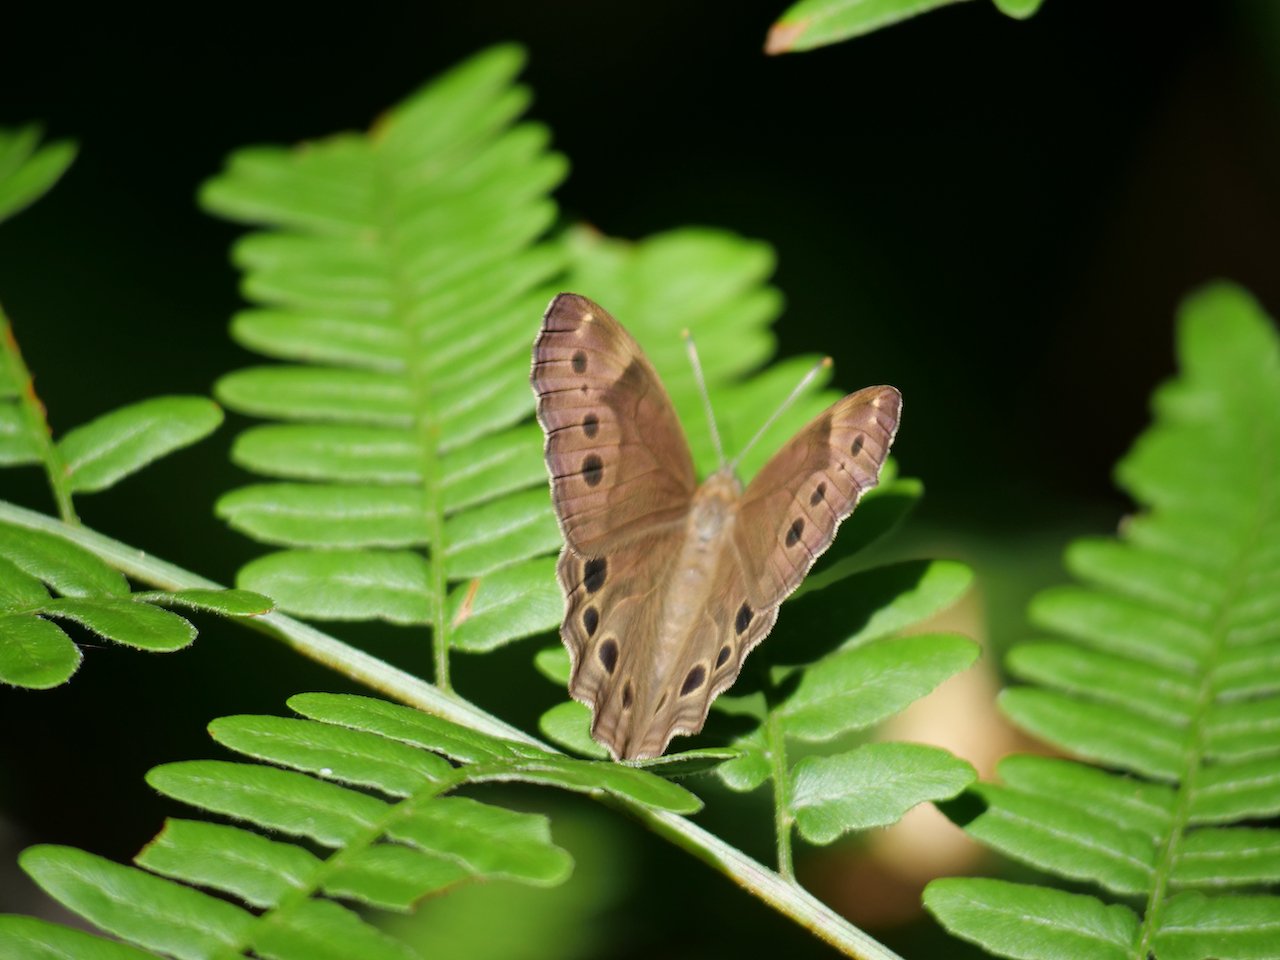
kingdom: Animalia
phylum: Arthropoda
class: Insecta
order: Lepidoptera
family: Nymphalidae
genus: Lethe
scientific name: Lethe anthedon
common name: Northern Pearly-Eye
